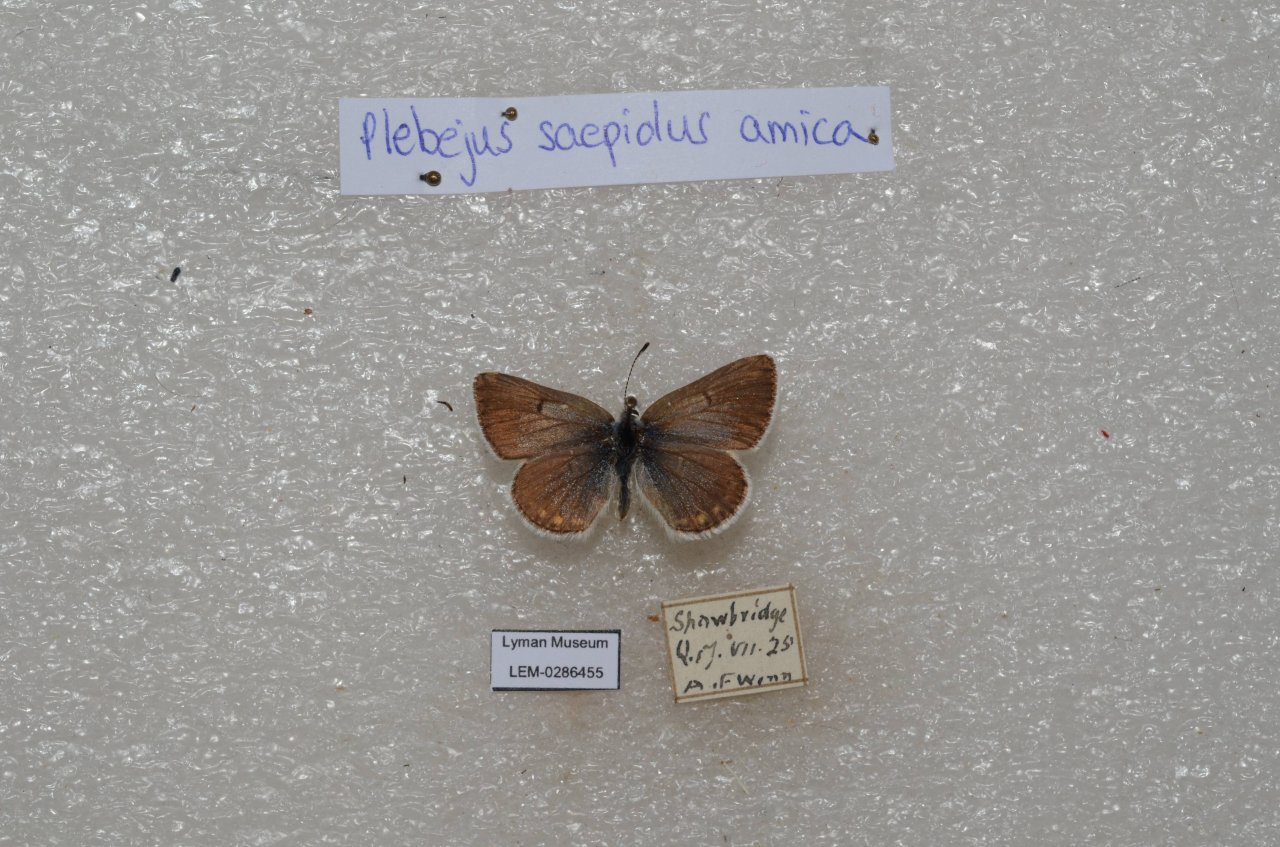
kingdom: Animalia
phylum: Arthropoda
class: Insecta
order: Lepidoptera
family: Lycaenidae
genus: Plebejus
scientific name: Plebejus saepiolus
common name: Greenish Blue
